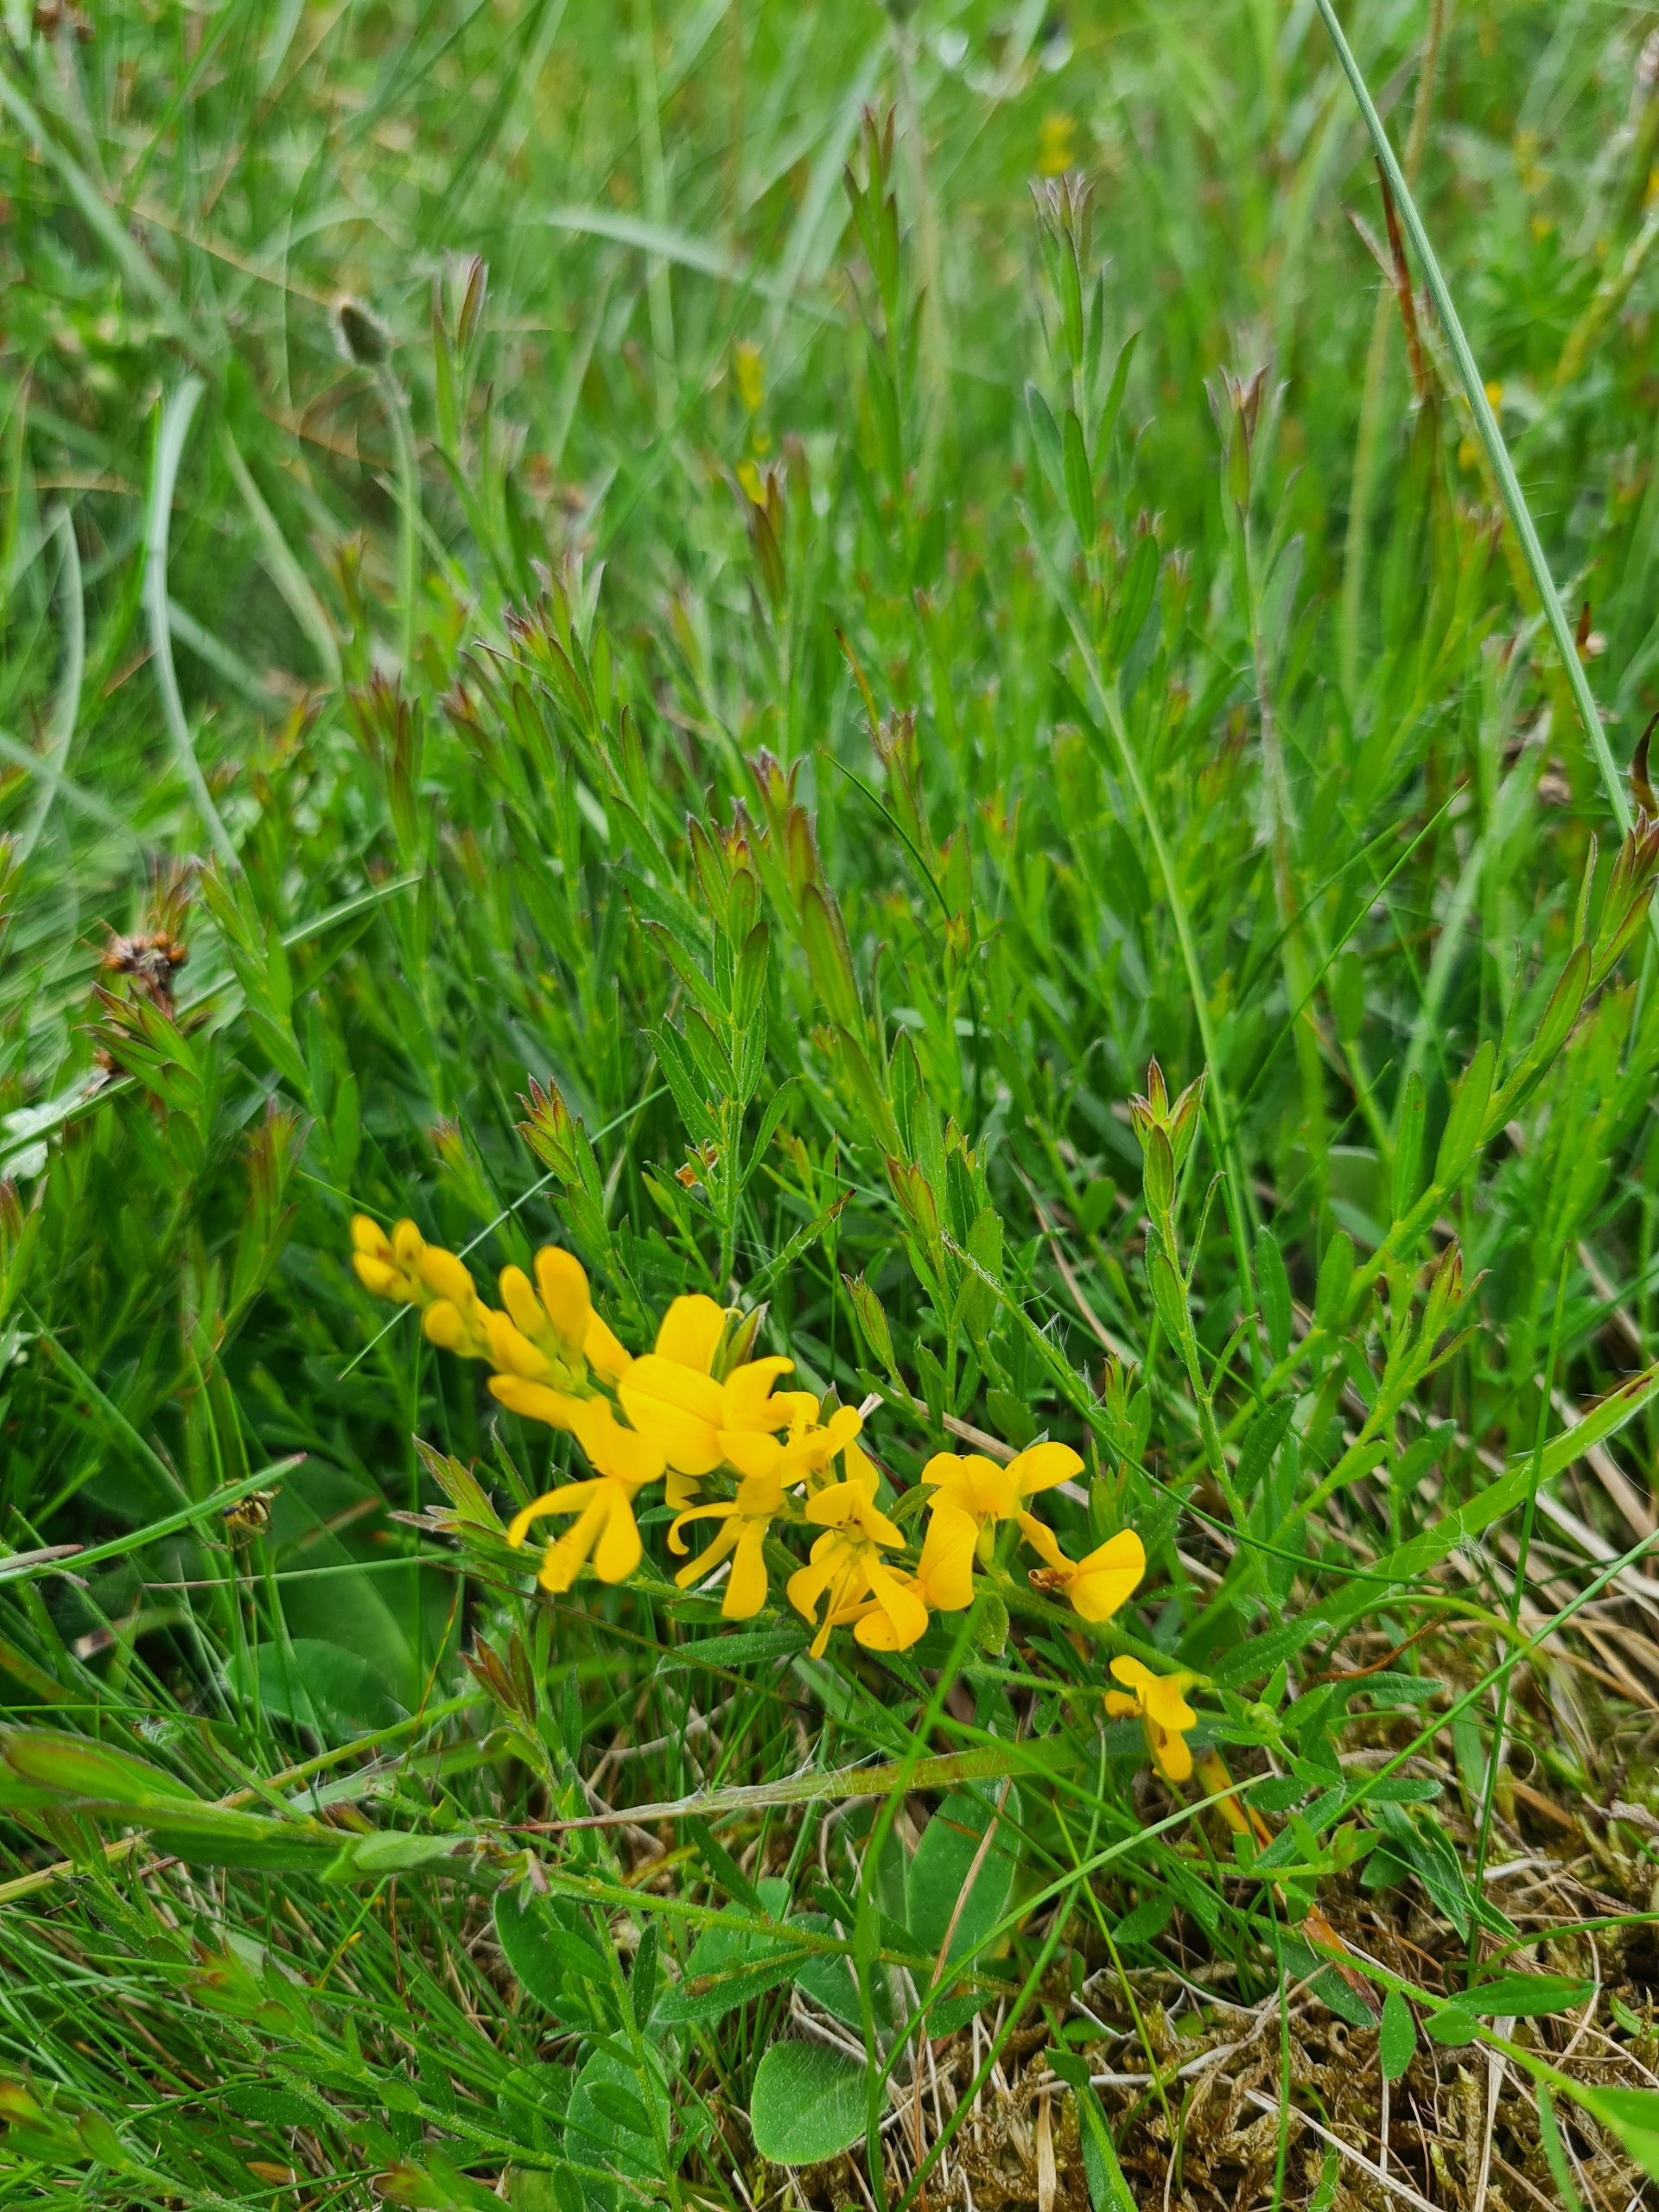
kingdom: Plantae
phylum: Tracheophyta
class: Magnoliopsida
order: Fabales
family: Fabaceae
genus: Genista
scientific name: Genista tinctoria
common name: Farve-visse
